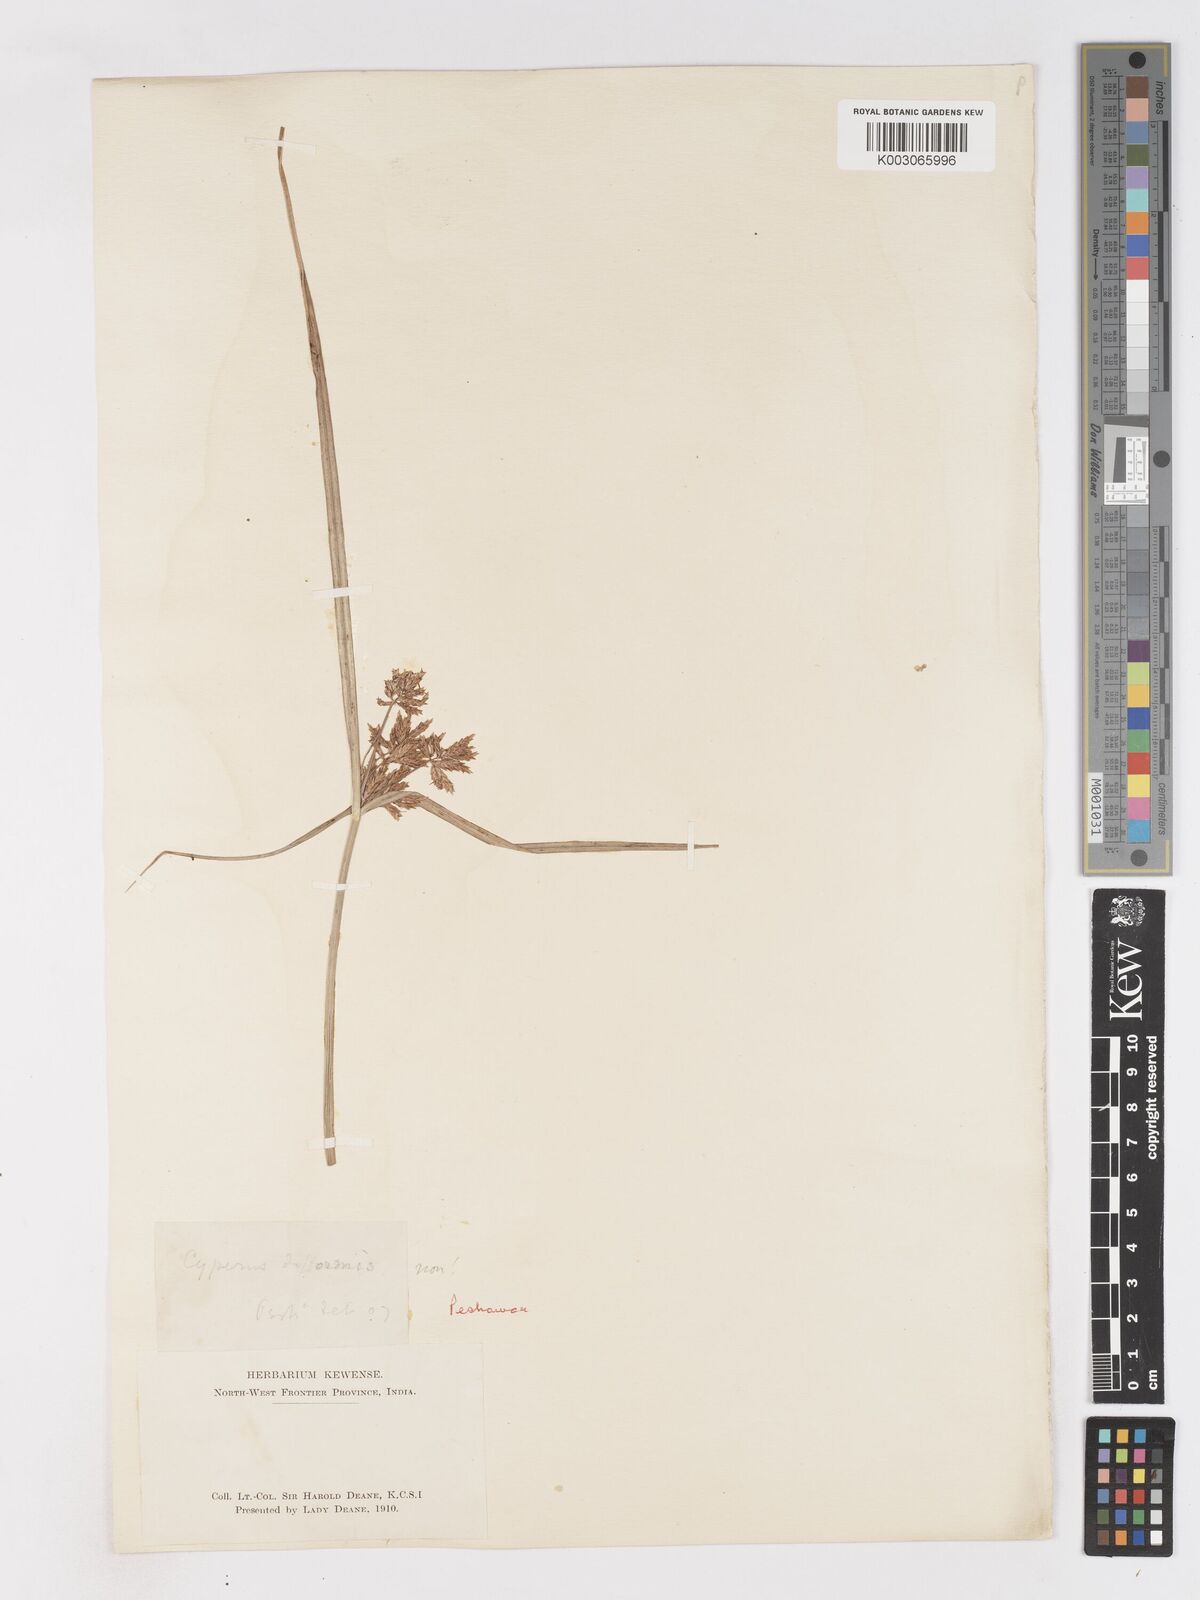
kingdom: Plantae
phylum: Tracheophyta
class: Liliopsida
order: Poales
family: Cyperaceae
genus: Cyperus
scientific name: Cyperus longus
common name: Galingale
